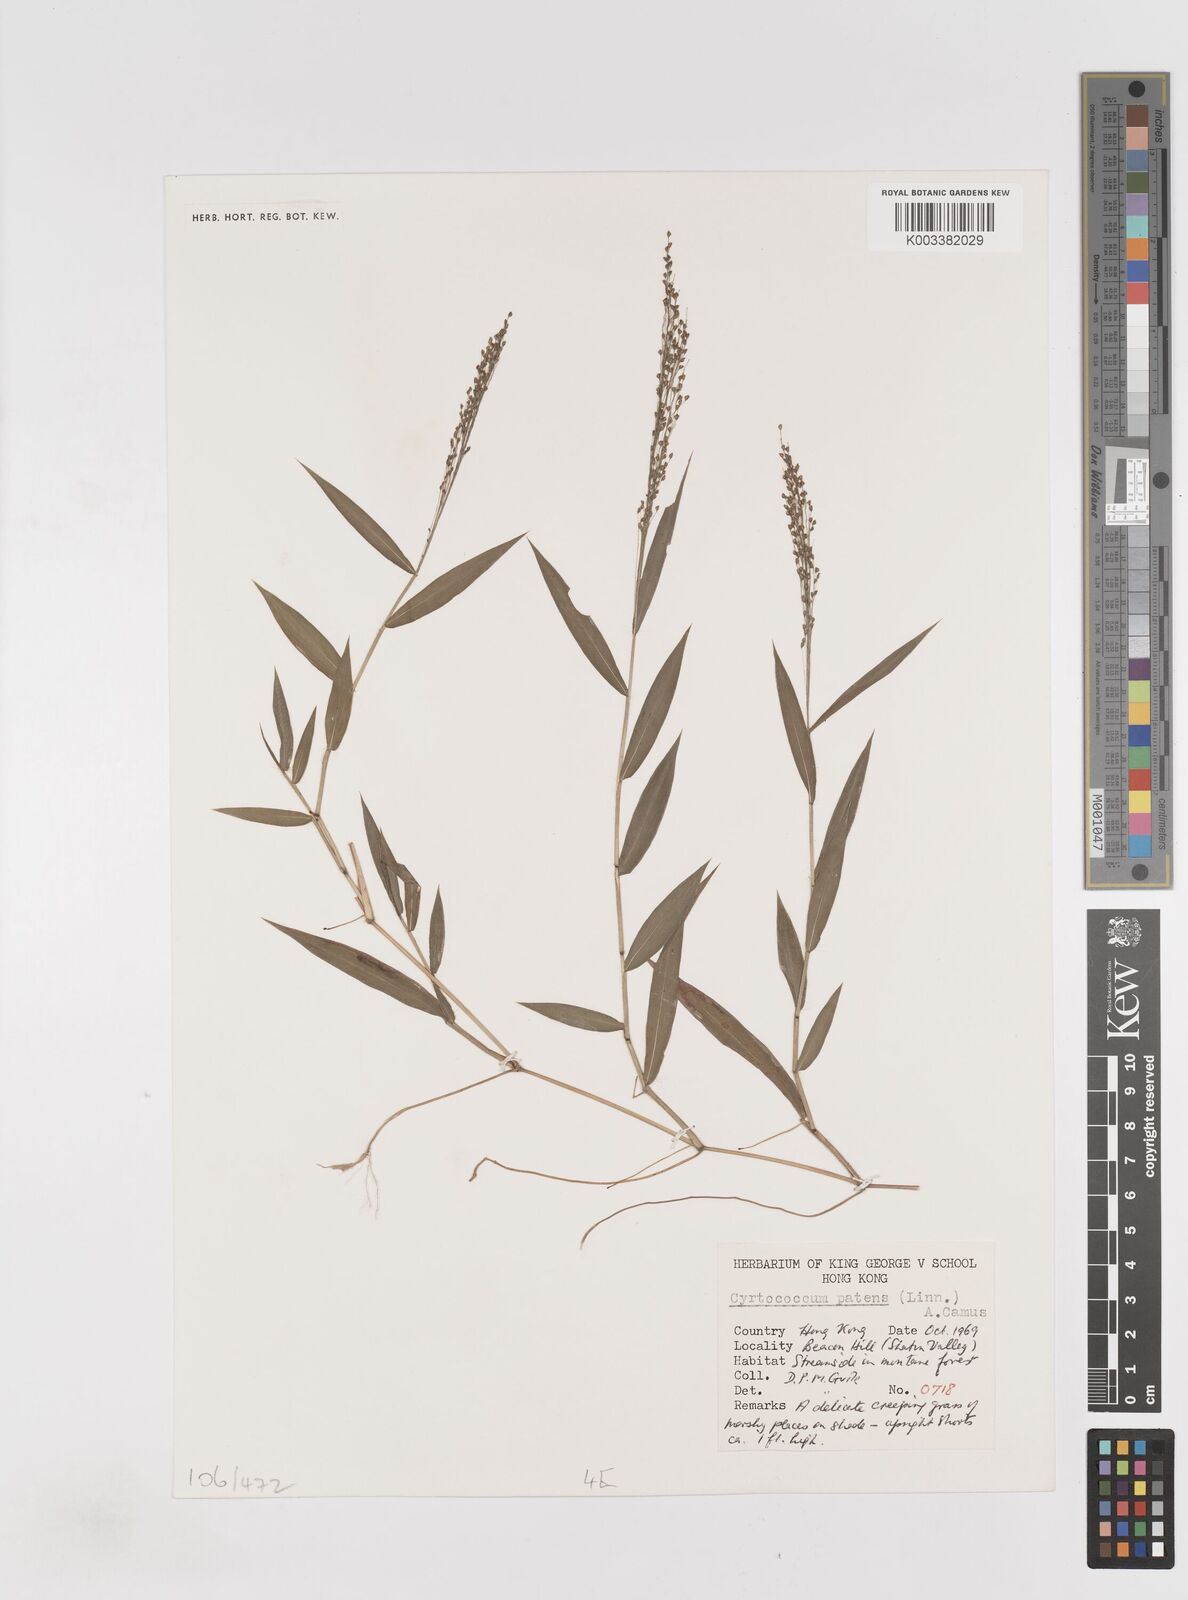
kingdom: Plantae
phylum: Tracheophyta
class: Liliopsida
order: Poales
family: Poaceae
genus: Cyrtococcum
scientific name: Cyrtococcum accrescens
